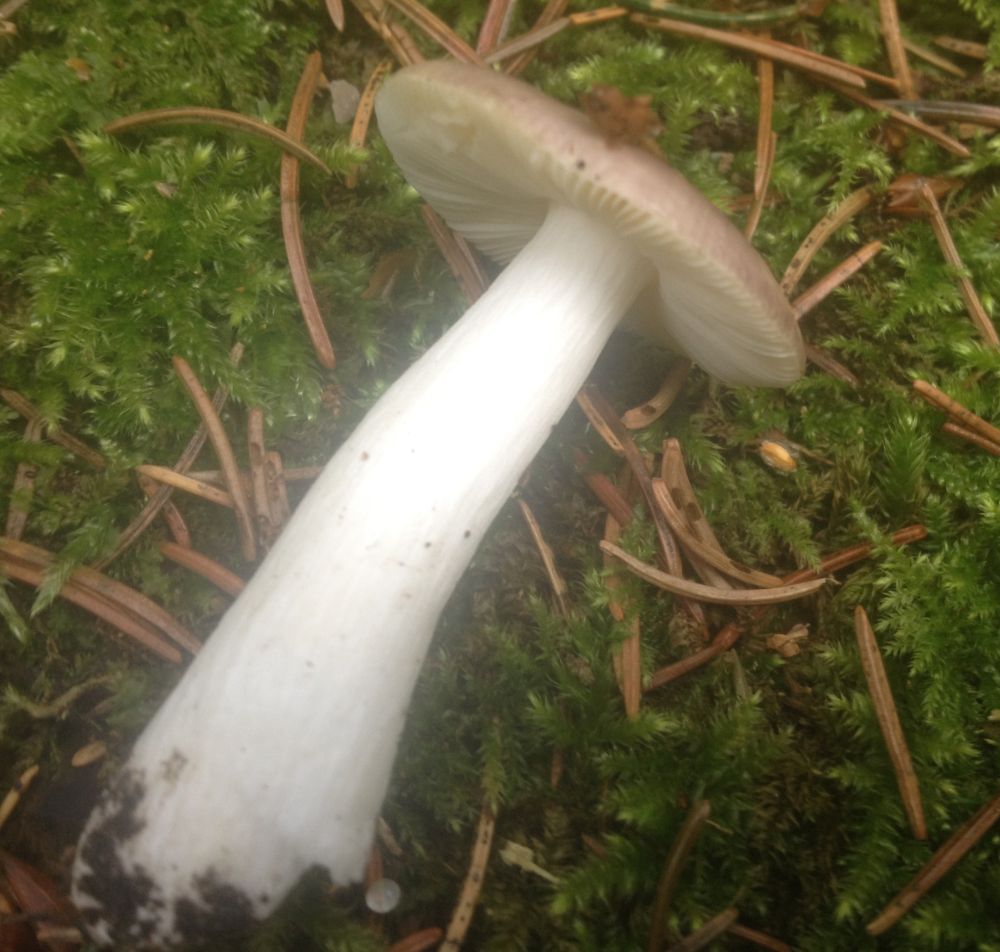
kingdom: Fungi
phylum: Basidiomycota
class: Agaricomycetes
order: Russulales
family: Russulaceae
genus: Russula
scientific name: Russula nauseosa
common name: spinkel skørhat
